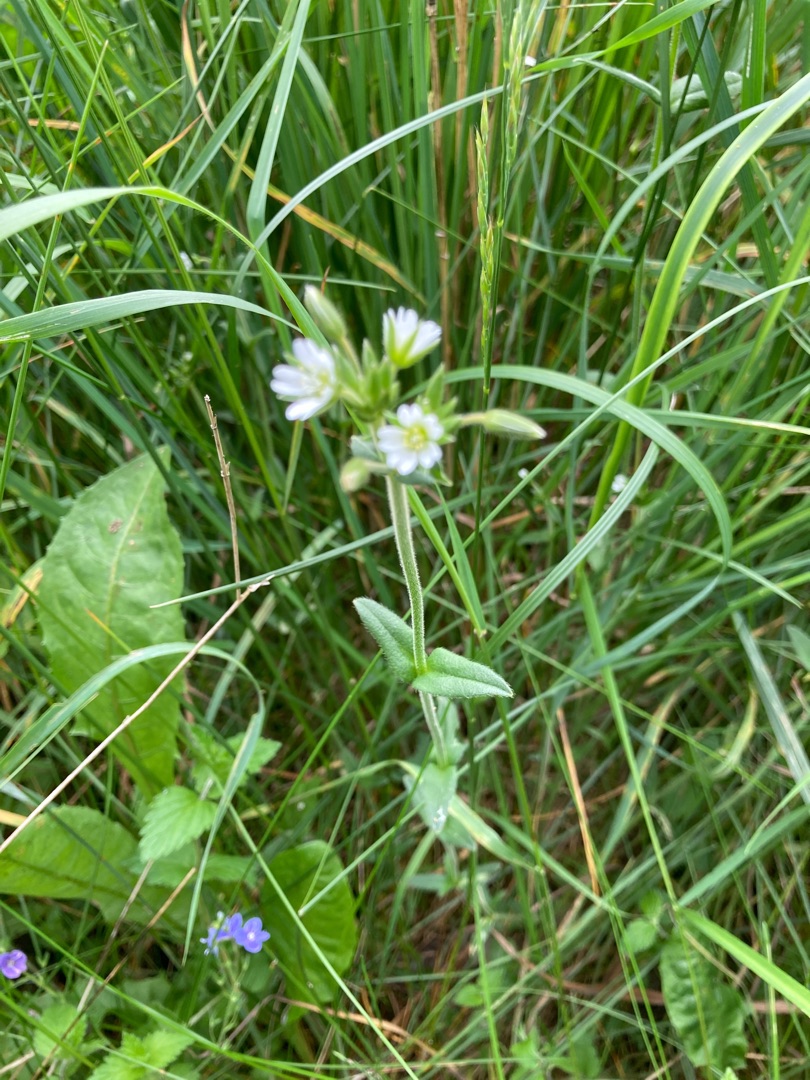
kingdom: Plantae
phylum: Tracheophyta
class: Magnoliopsida
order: Caryophyllales
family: Caryophyllaceae
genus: Cerastium
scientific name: Cerastium fontanum
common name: Almindelig hønsetarm
